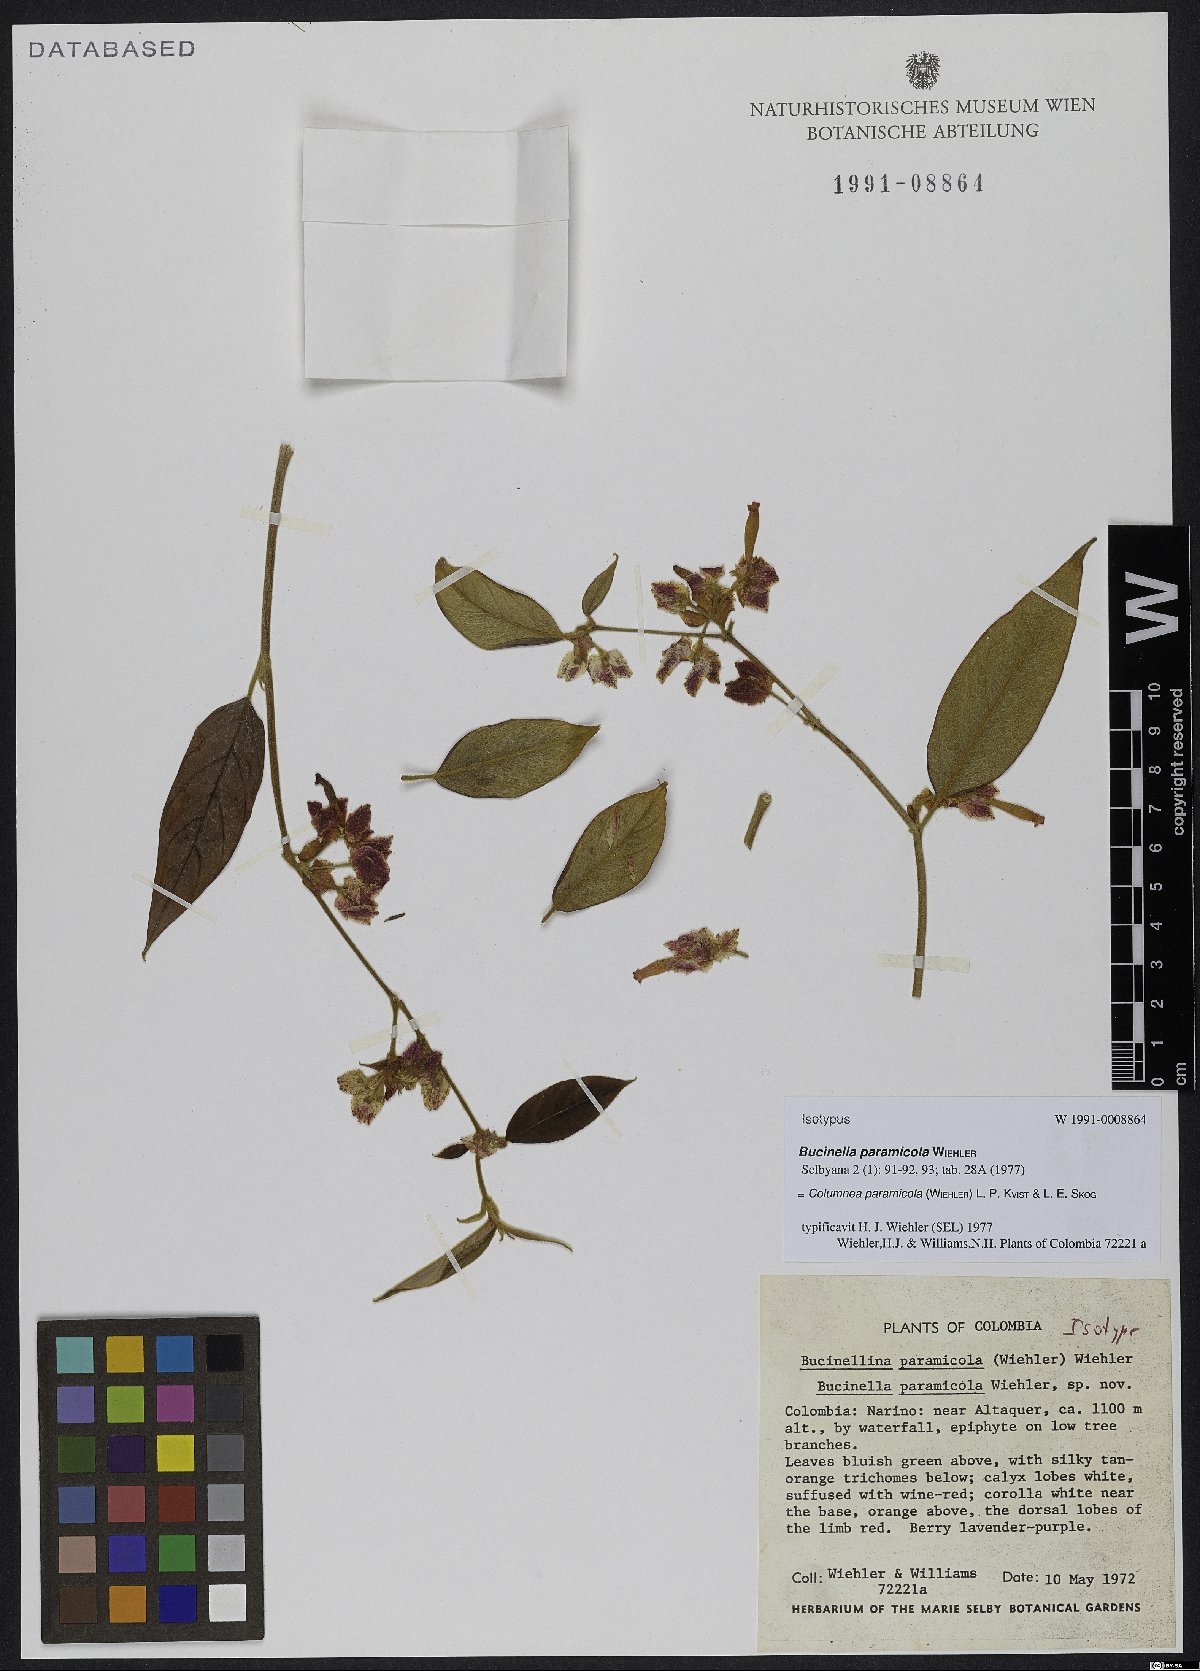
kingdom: Plantae
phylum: Tracheophyta
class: Magnoliopsida
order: Lamiales
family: Gesneriaceae
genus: Columnea
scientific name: Columnea paramicola
